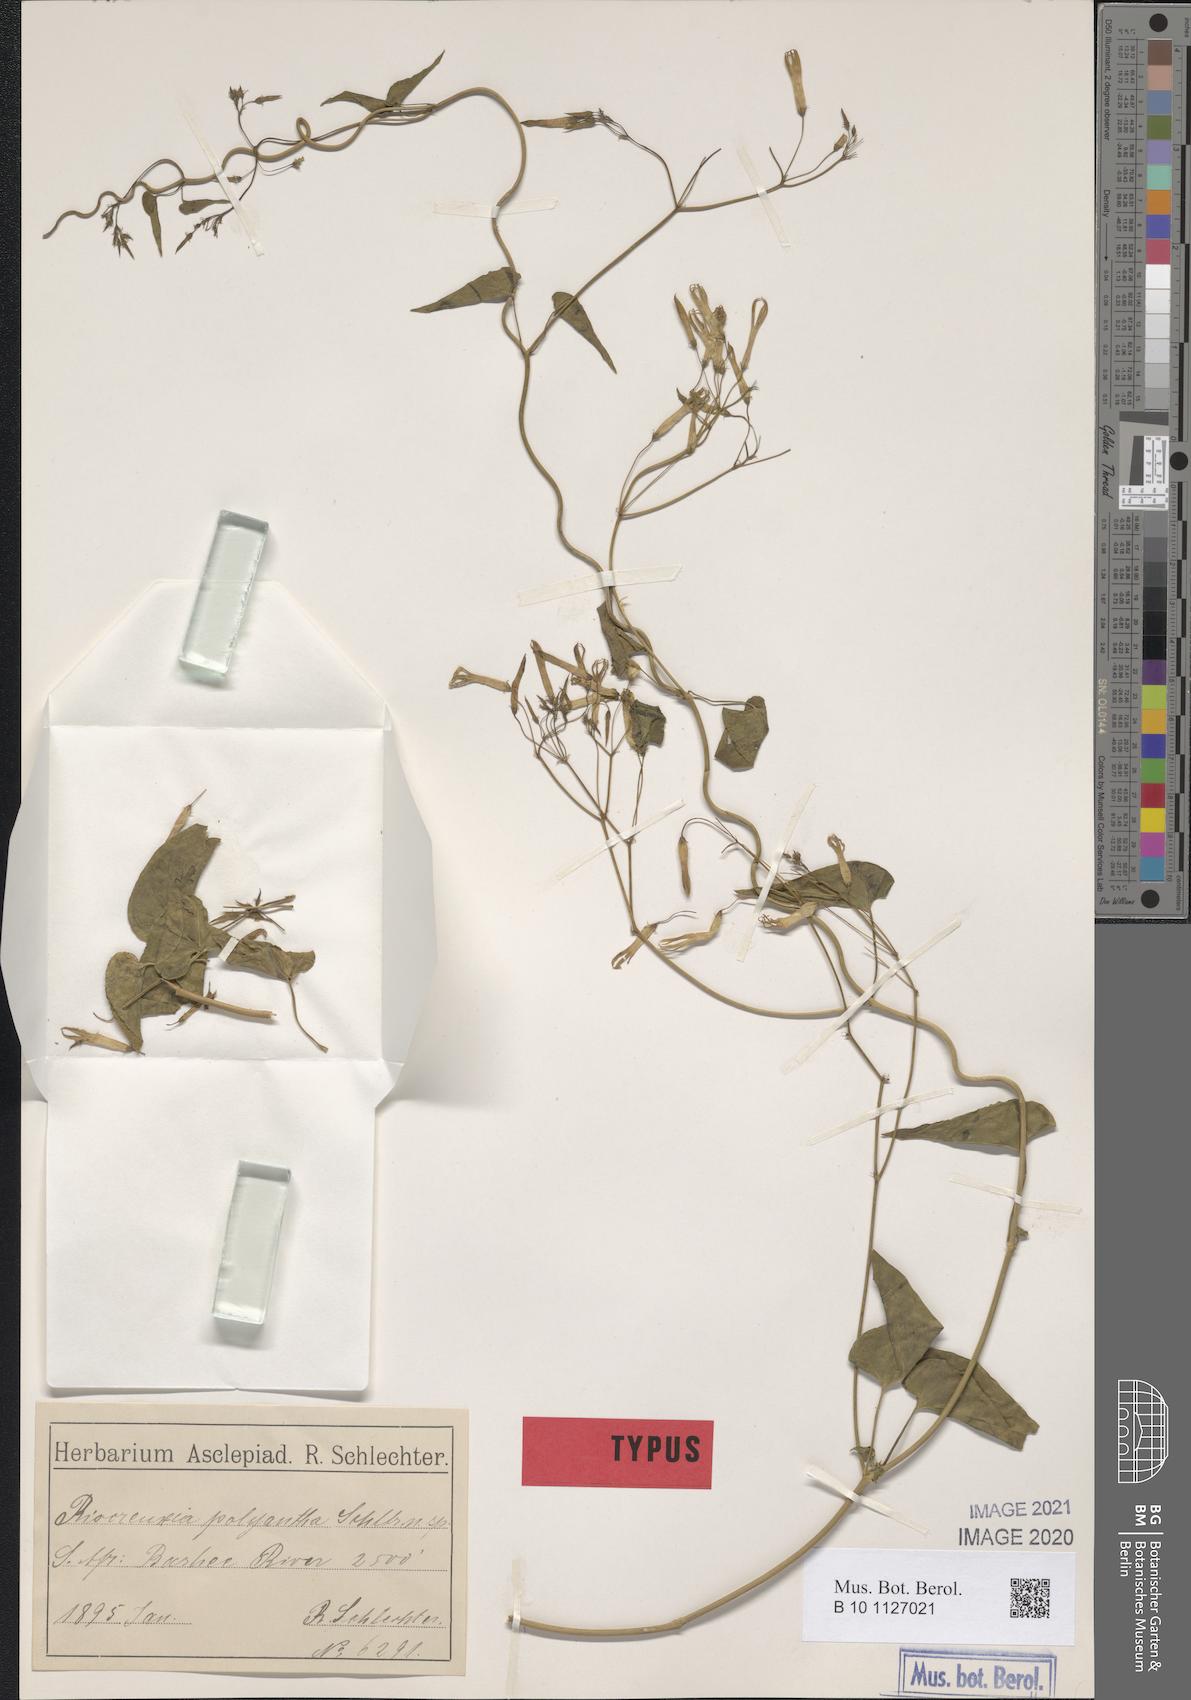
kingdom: Plantae
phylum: Tracheophyta
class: Magnoliopsida
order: Gentianales
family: Apocynaceae
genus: Riocreuxia
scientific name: Riocreuxia polyantha
